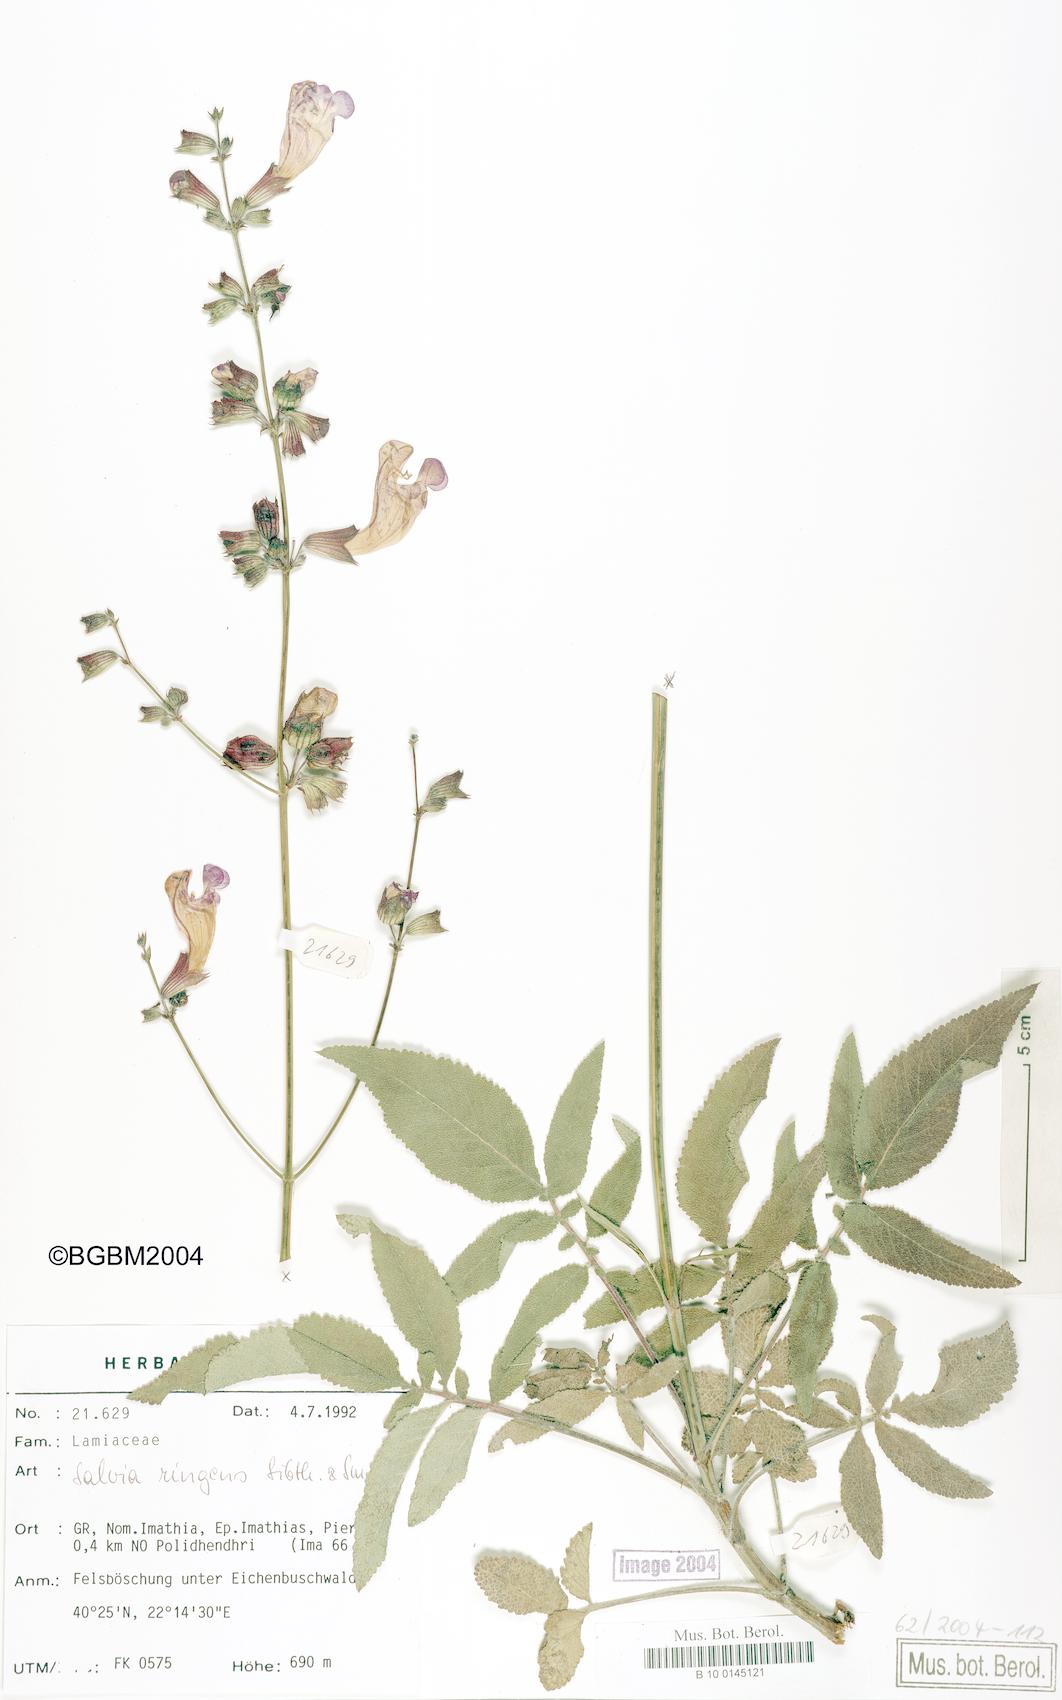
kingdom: Plantae
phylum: Tracheophyta
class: Magnoliopsida
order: Lamiales
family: Lamiaceae
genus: Salvia
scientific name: Salvia ringens
